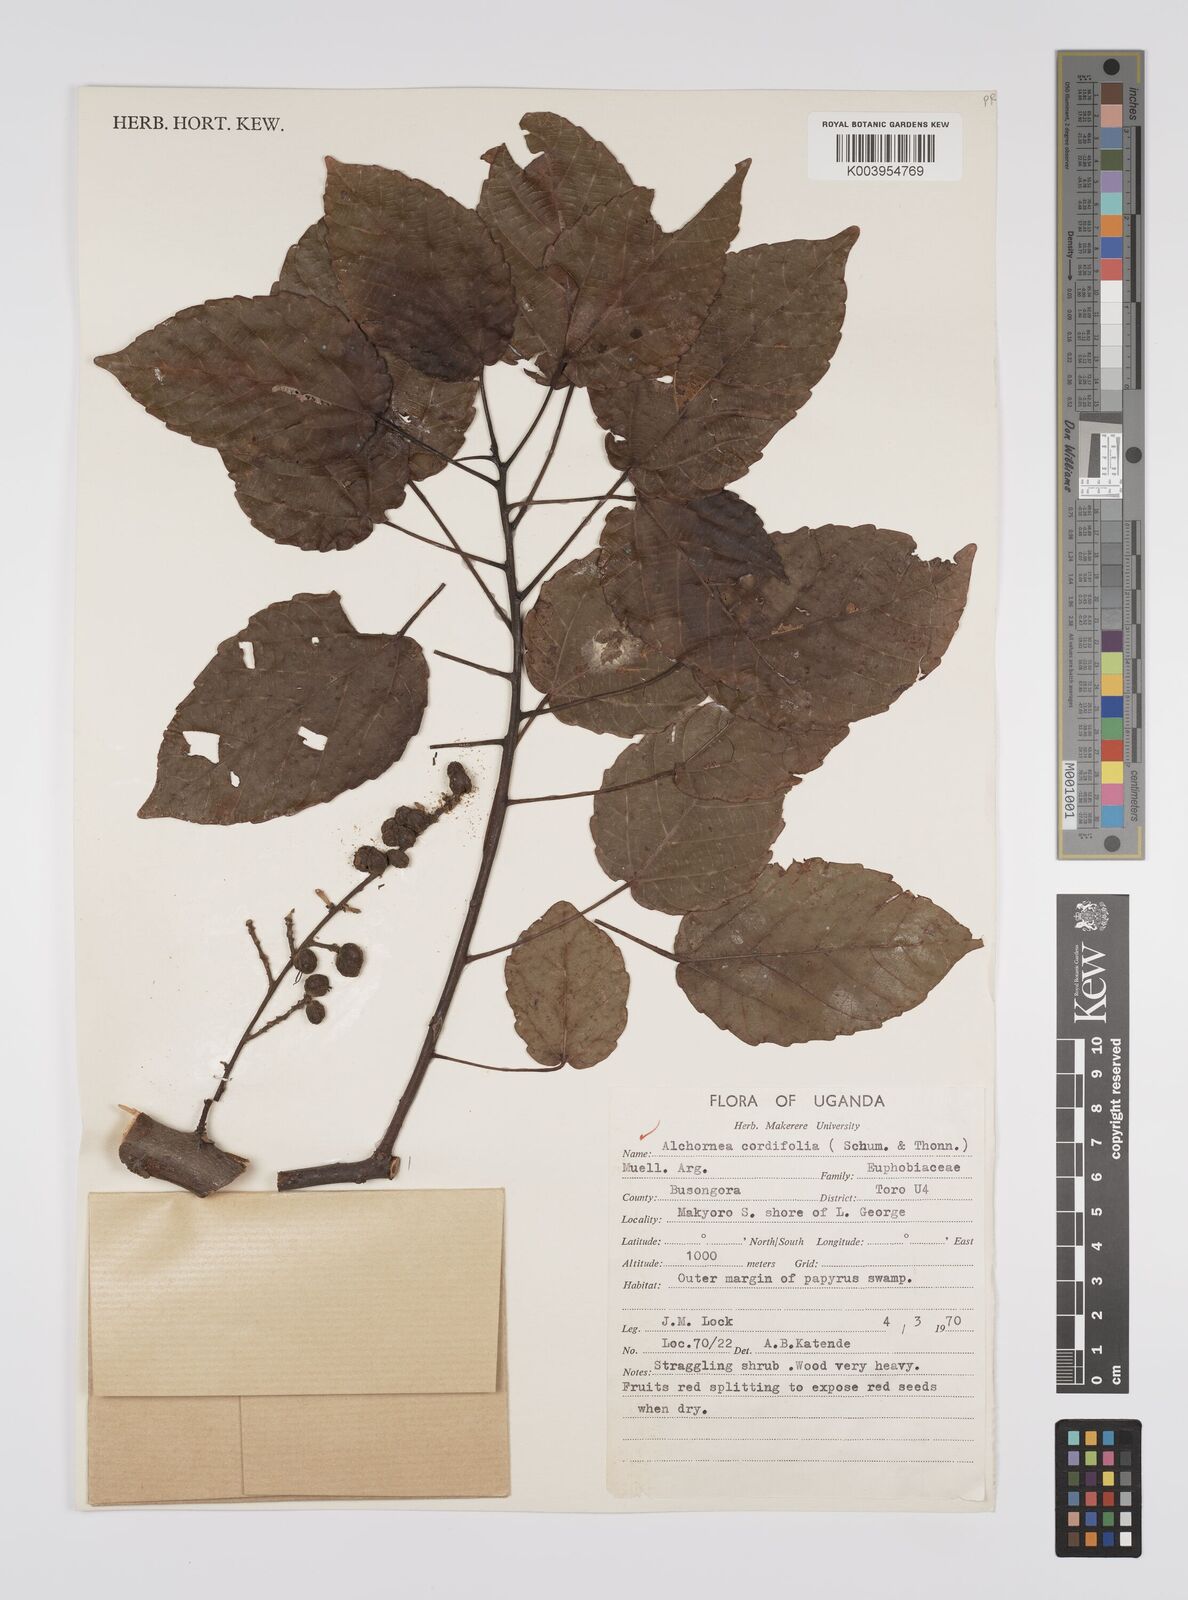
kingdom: Plantae
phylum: Tracheophyta
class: Magnoliopsida
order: Malpighiales
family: Euphorbiaceae
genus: Alchornea
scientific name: Alchornea cordifolia
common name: Christmasbush
